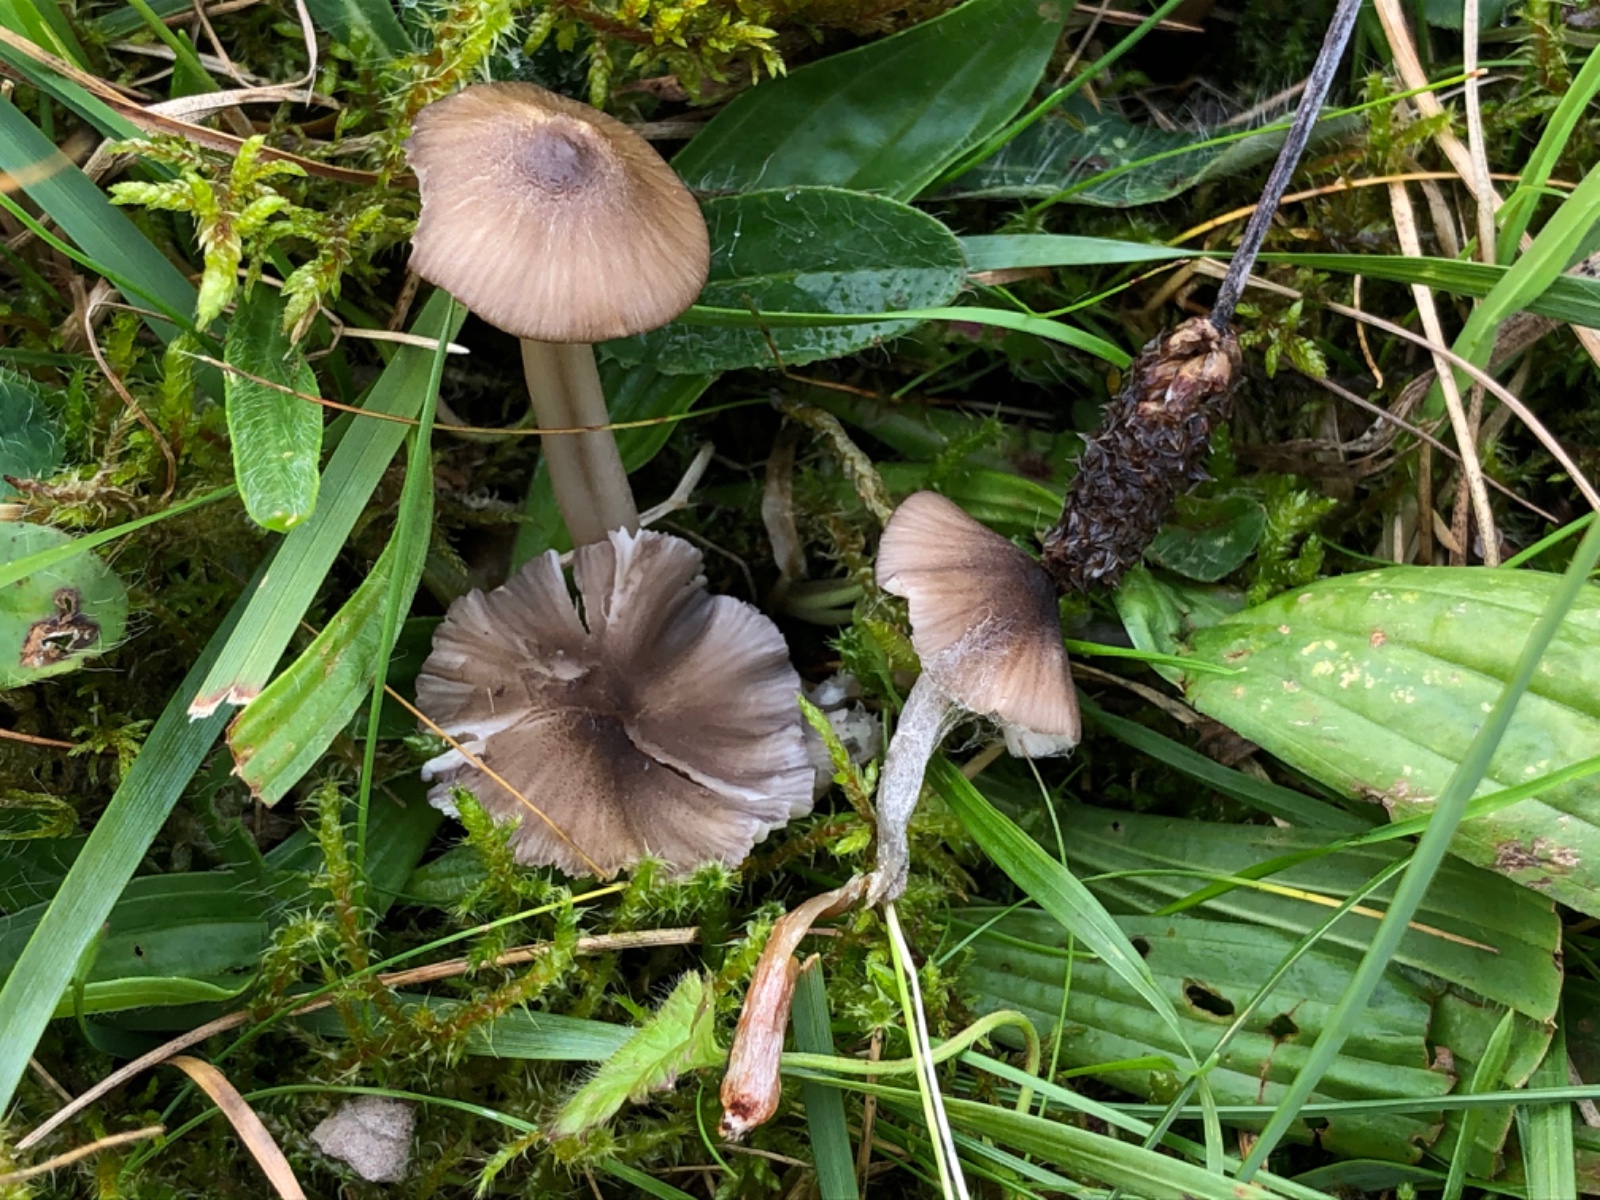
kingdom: Fungi
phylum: Basidiomycota
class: Agaricomycetes
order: Agaricales
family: Entolomataceae
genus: Entoloma
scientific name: Entoloma exile
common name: rødplettet rødblad
